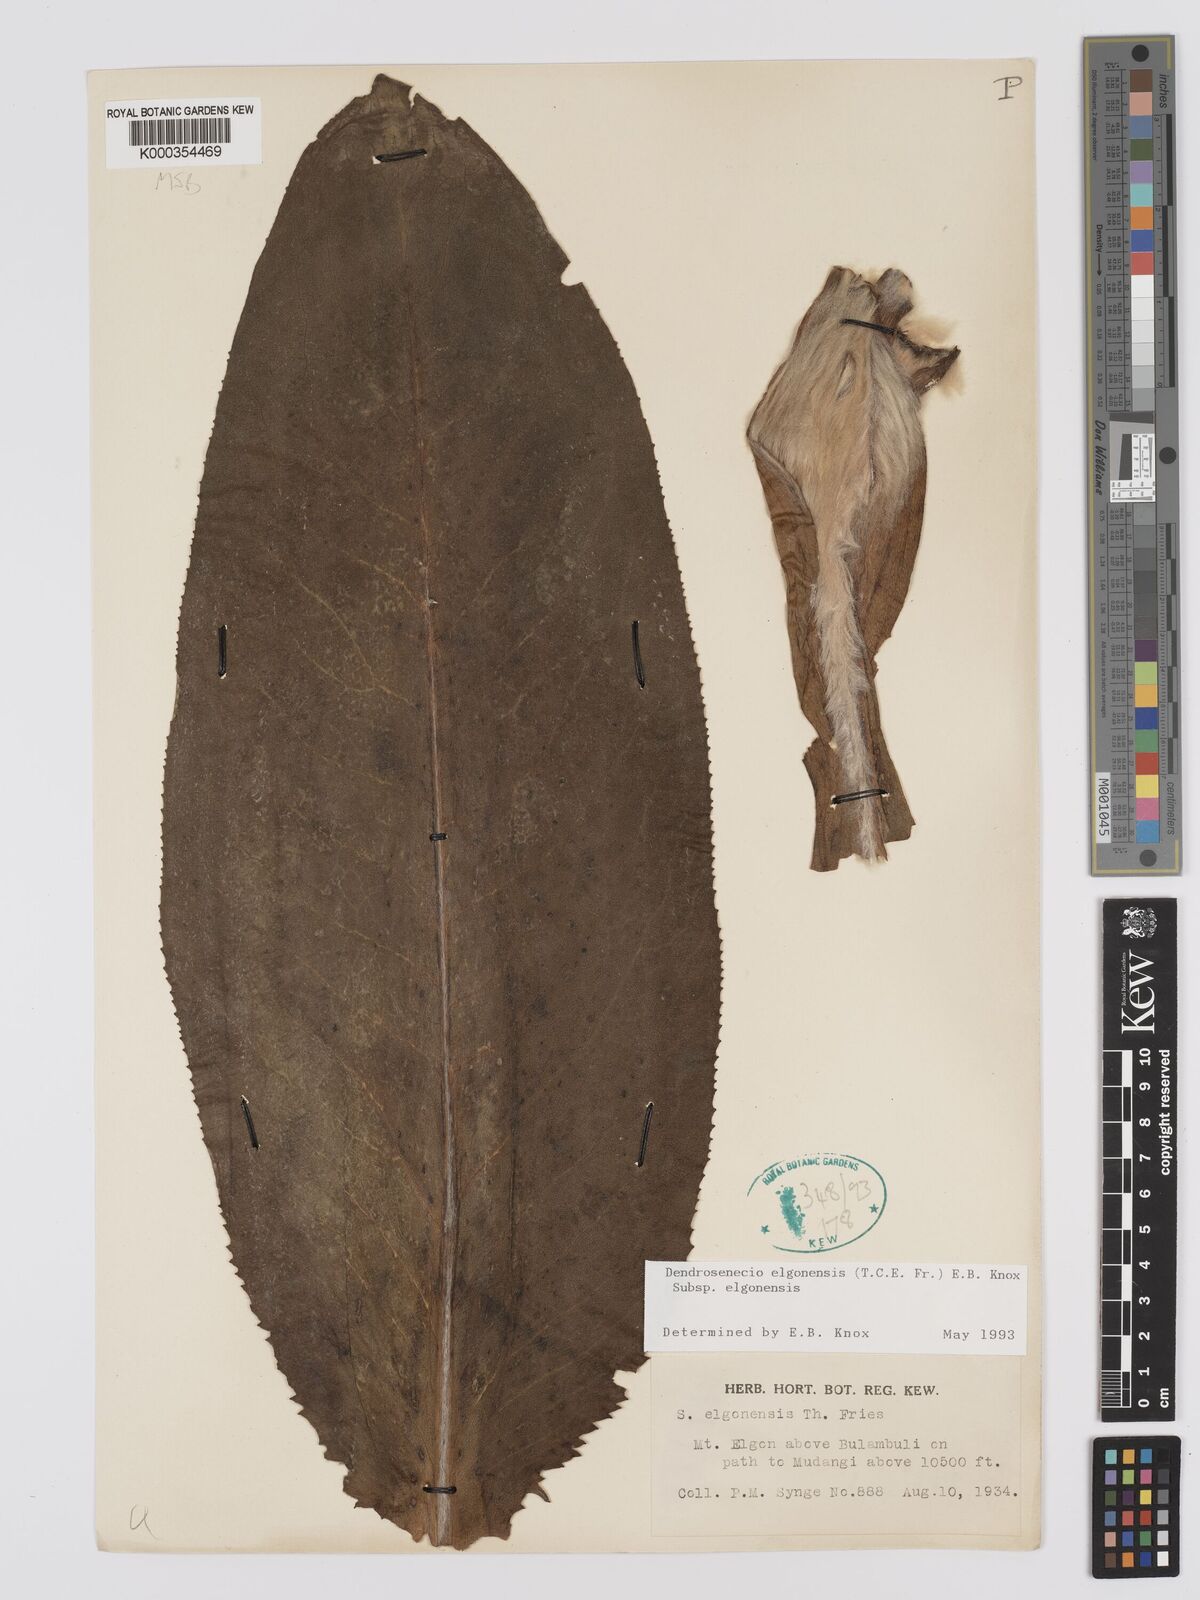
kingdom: Plantae
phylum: Tracheophyta
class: Magnoliopsida
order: Asterales
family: Asteraceae
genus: Dendrosenecio
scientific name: Dendrosenecio elgonensis
